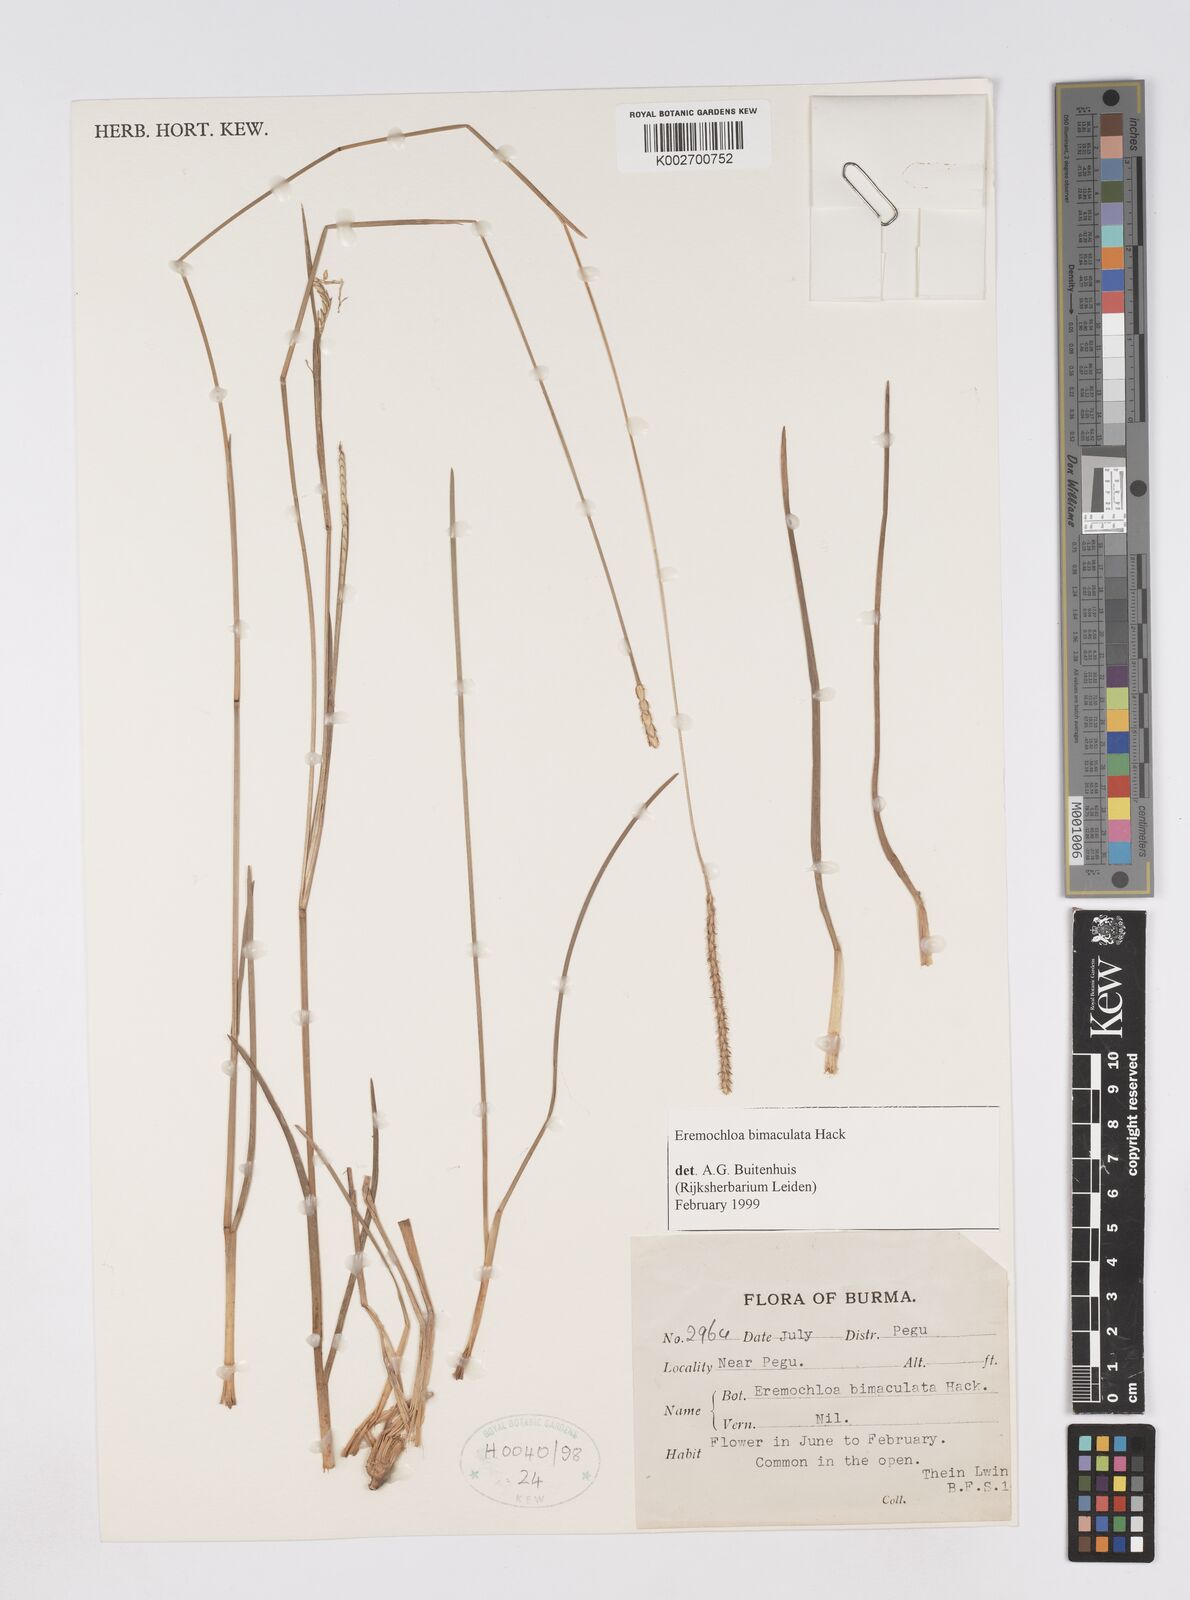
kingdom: Plantae
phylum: Tracheophyta
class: Liliopsida
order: Poales
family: Poaceae
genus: Eremochloa
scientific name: Eremochloa bimaculata
